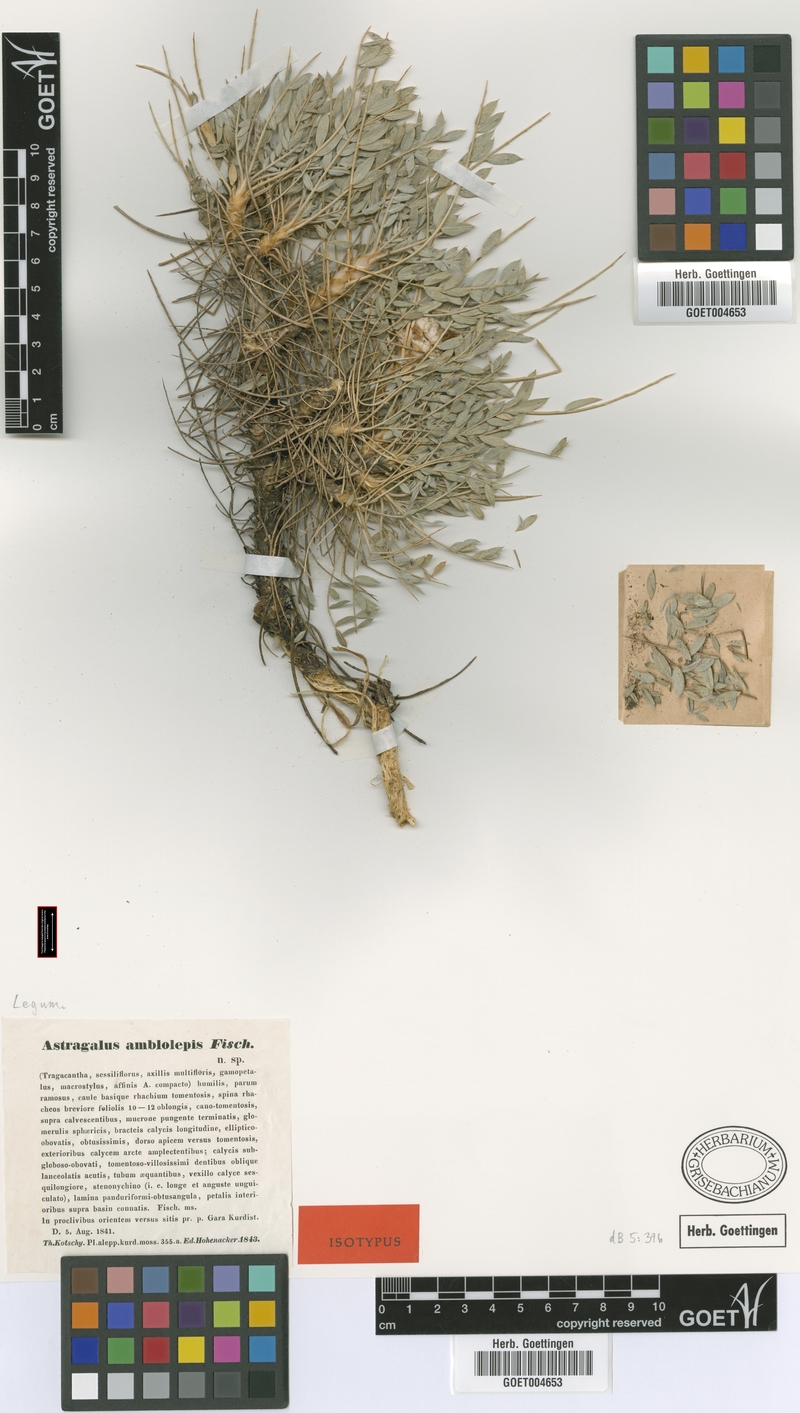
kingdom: Plantae
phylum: Tracheophyta
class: Magnoliopsida
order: Fabales
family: Fabaceae
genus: Astragalus
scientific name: Astragalus amblolepis
